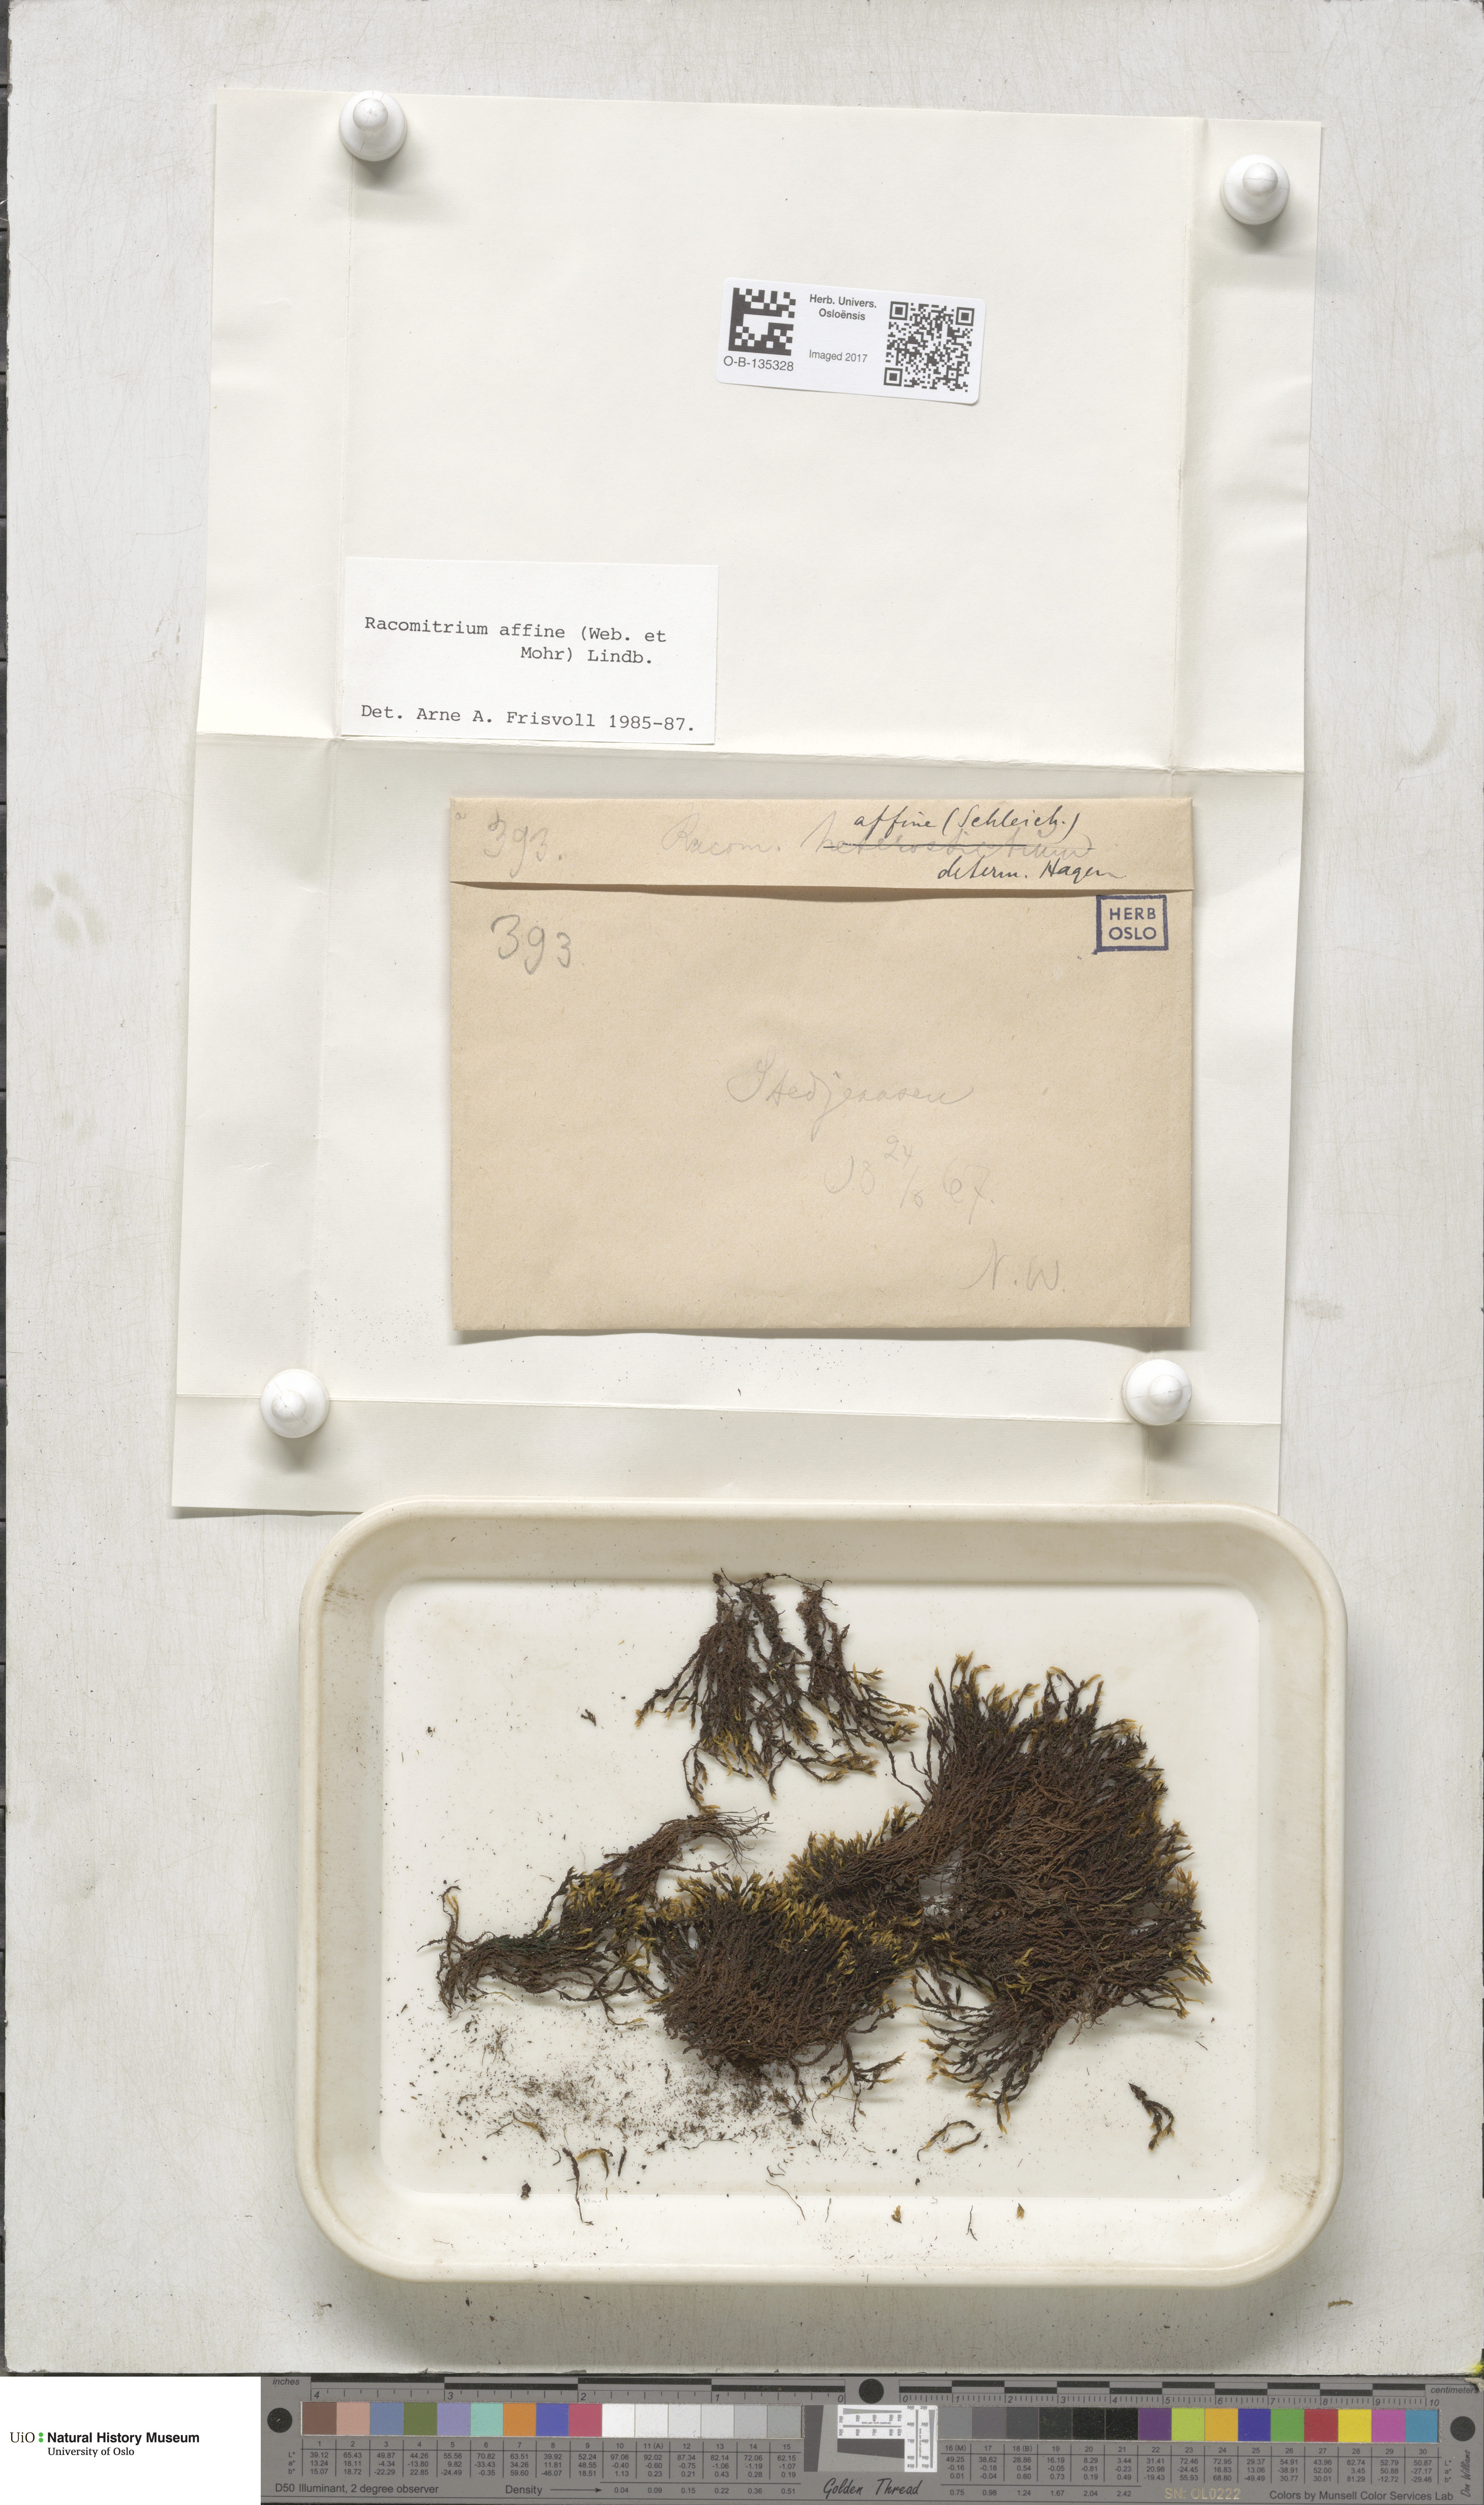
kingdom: Plantae
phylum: Bryophyta
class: Bryopsida
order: Grimmiales
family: Grimmiaceae
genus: Bucklandiella
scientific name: Bucklandiella affinis
